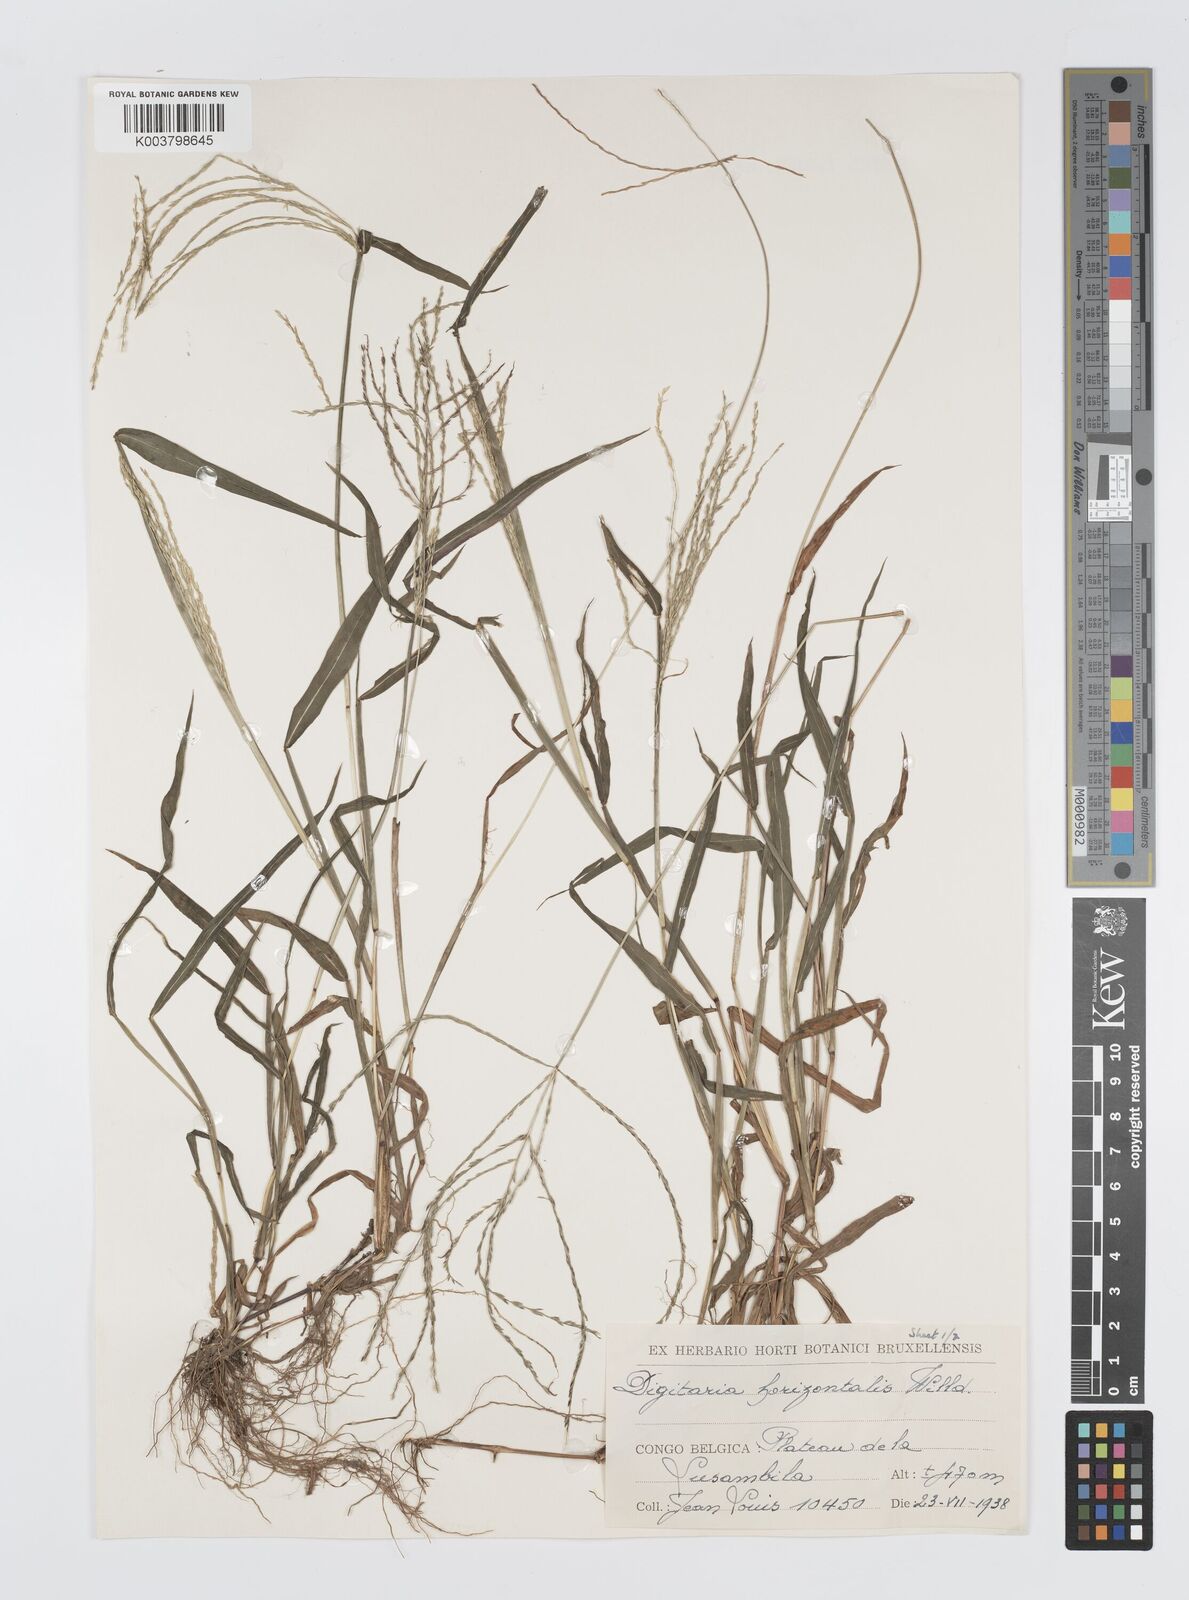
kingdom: Plantae
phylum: Tracheophyta
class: Liliopsida
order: Poales
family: Poaceae
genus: Digitaria
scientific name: Digitaria horizontalis
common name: Jamaican crabgrass
